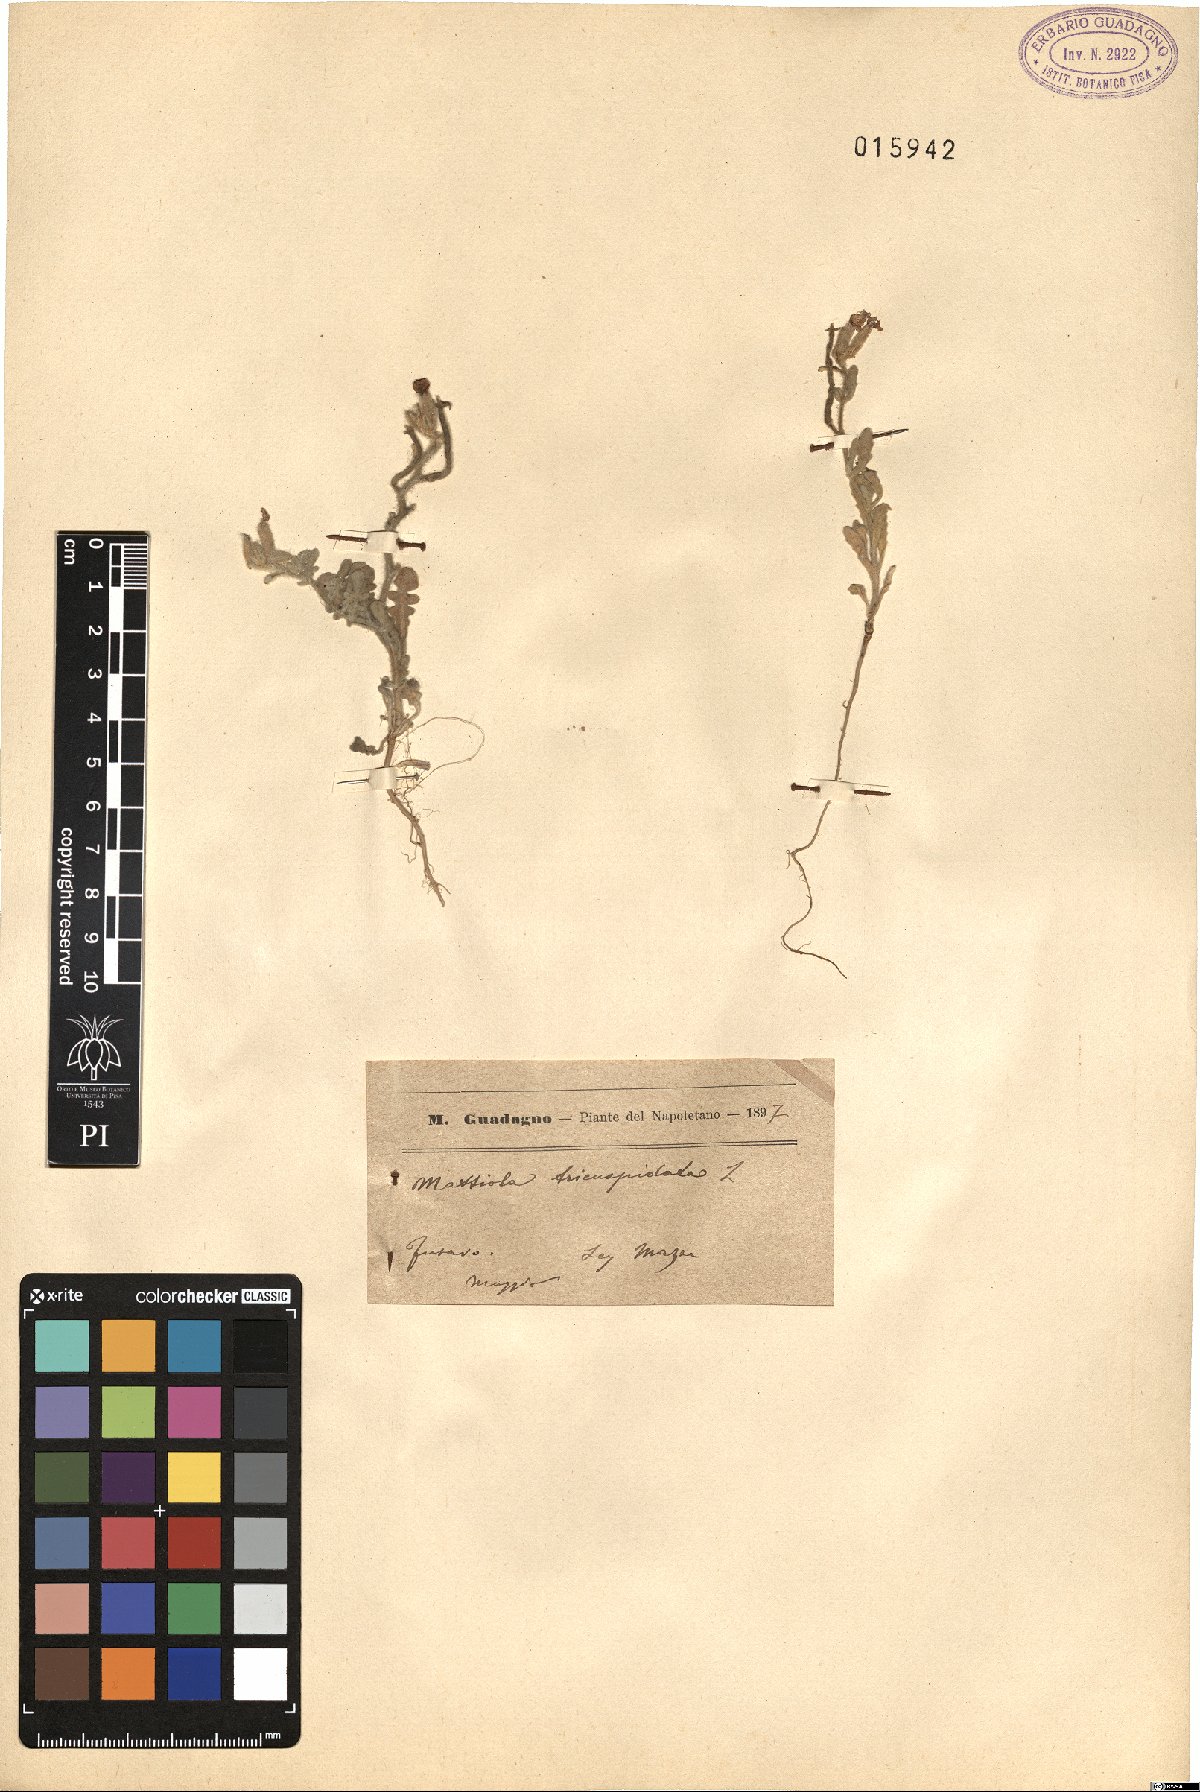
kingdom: Plantae
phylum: Tracheophyta
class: Magnoliopsida
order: Brassicales
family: Brassicaceae
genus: Matthiola
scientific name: Matthiola tricuspidata
